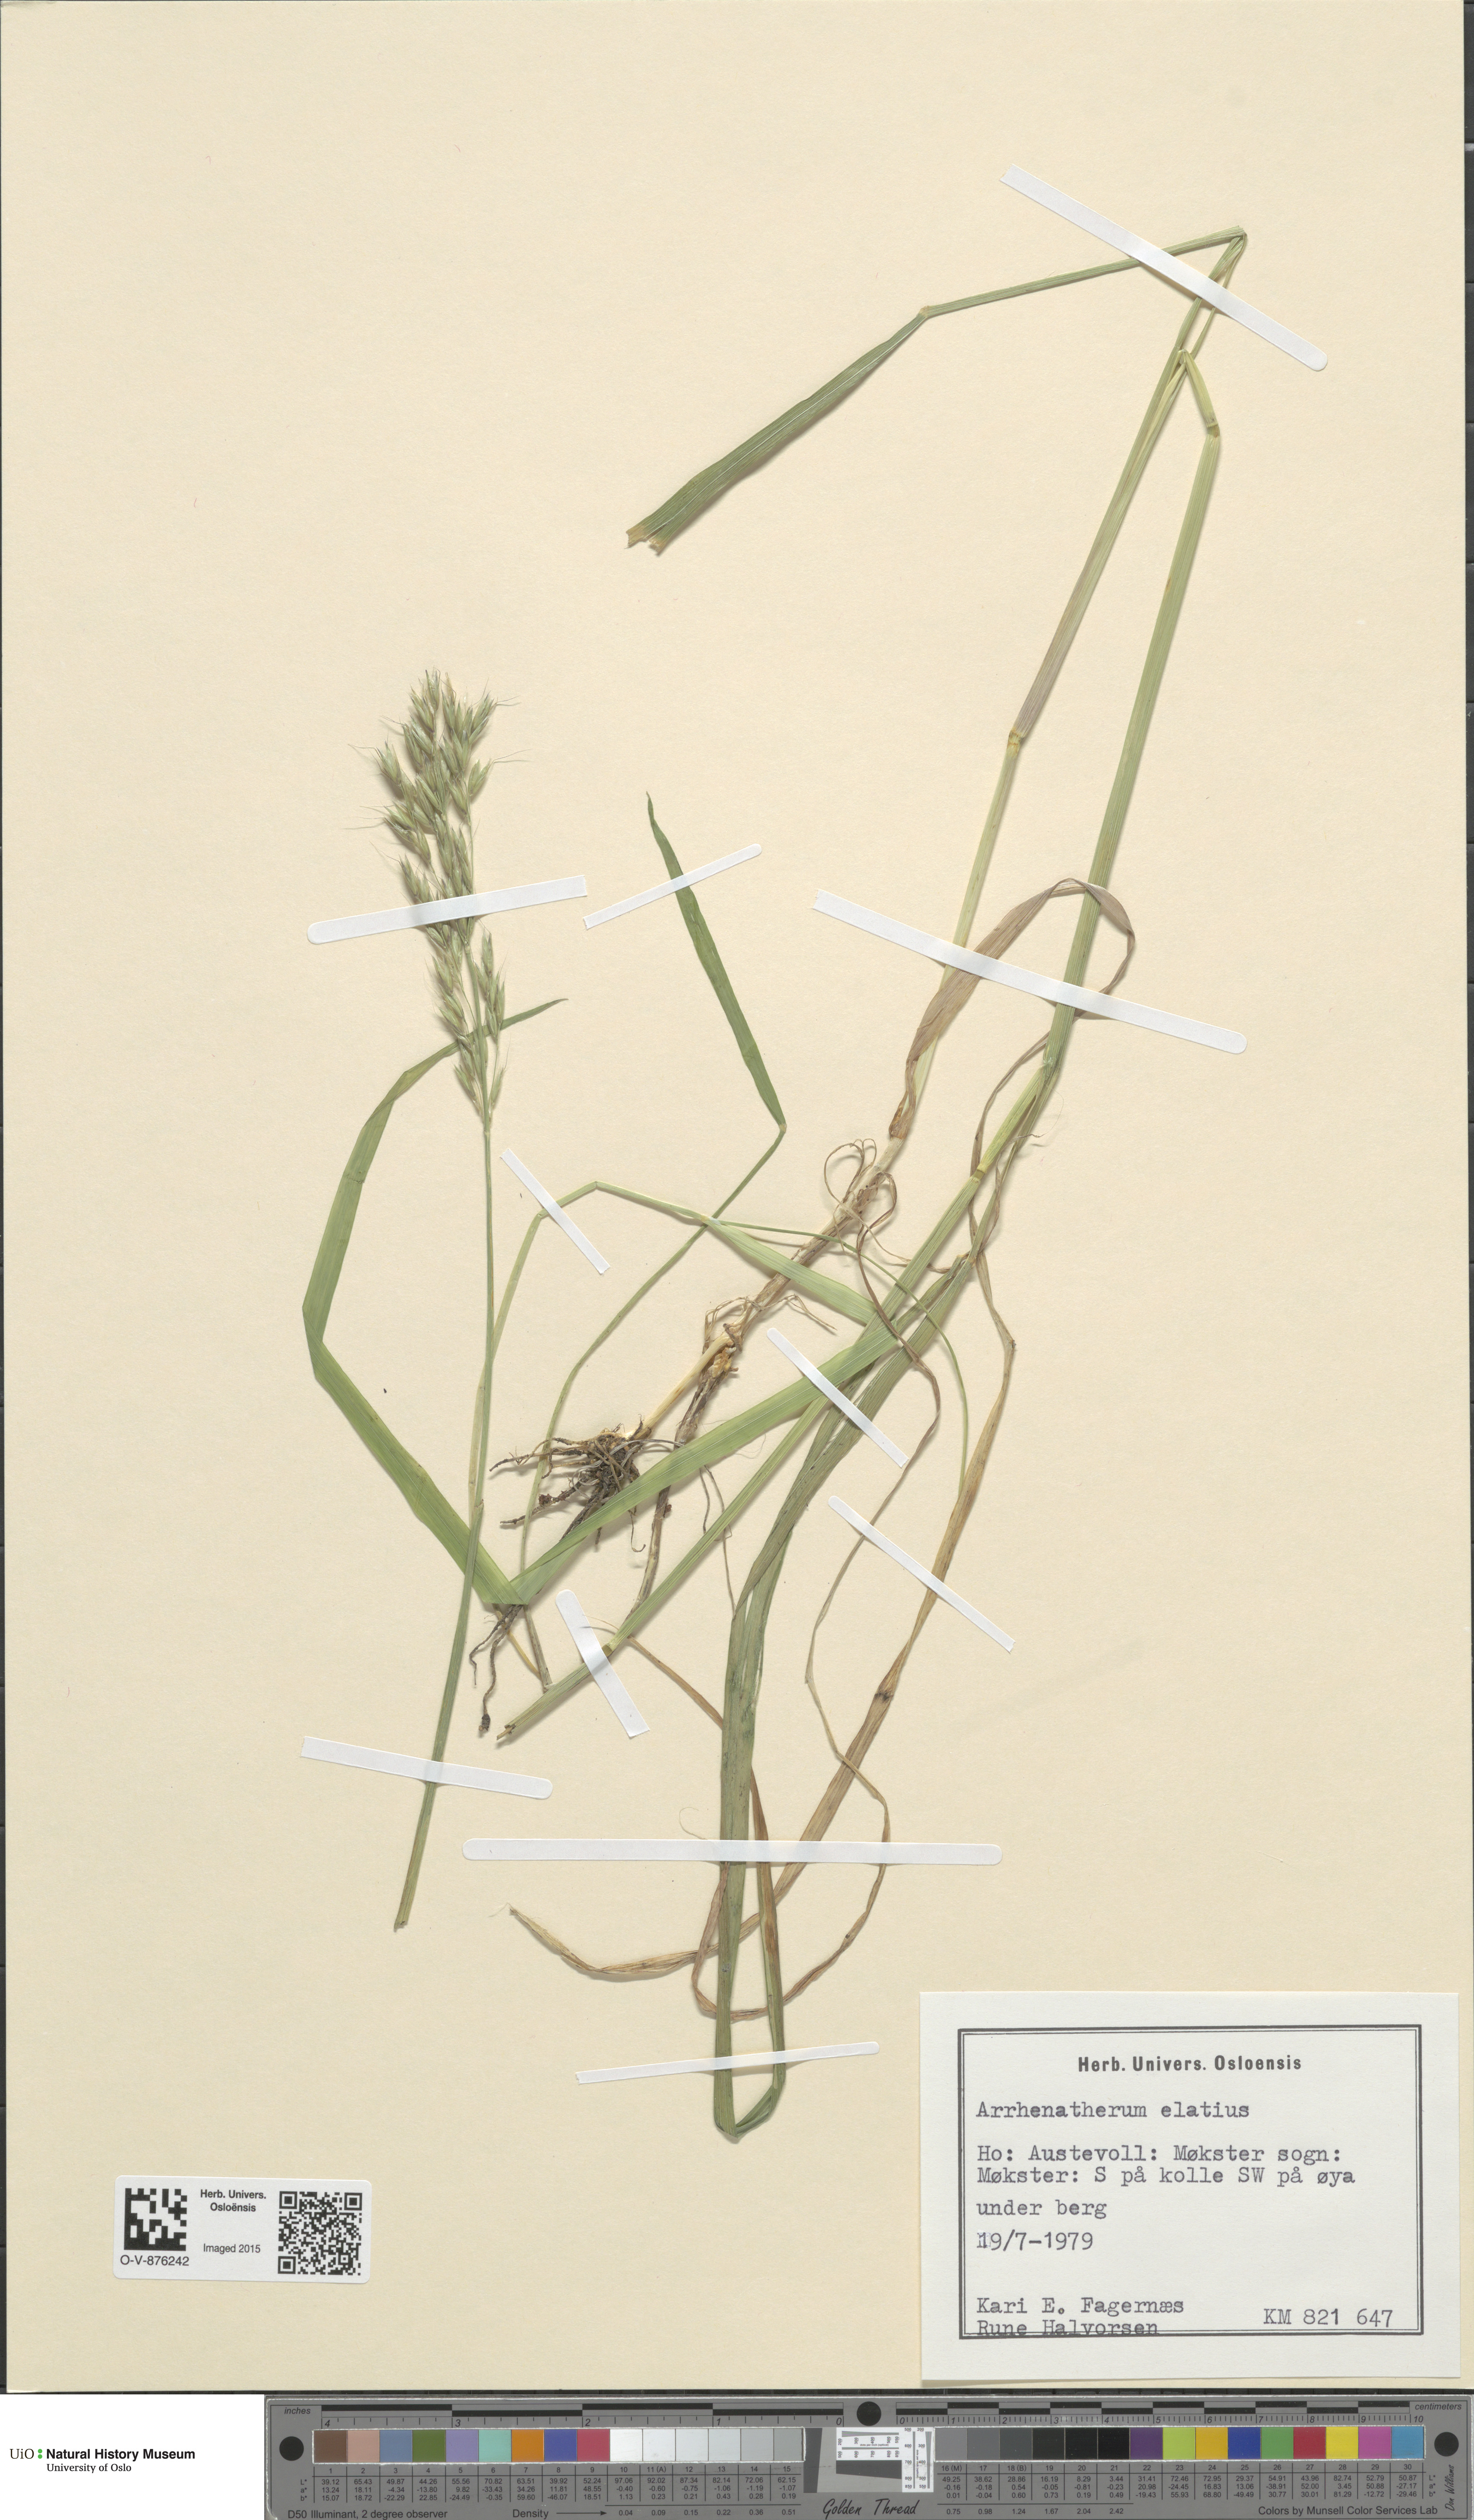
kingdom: Plantae
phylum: Tracheophyta
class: Liliopsida
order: Poales
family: Poaceae
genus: Arrhenatherum
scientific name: Arrhenatherum elatius
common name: Tall oatgrass
